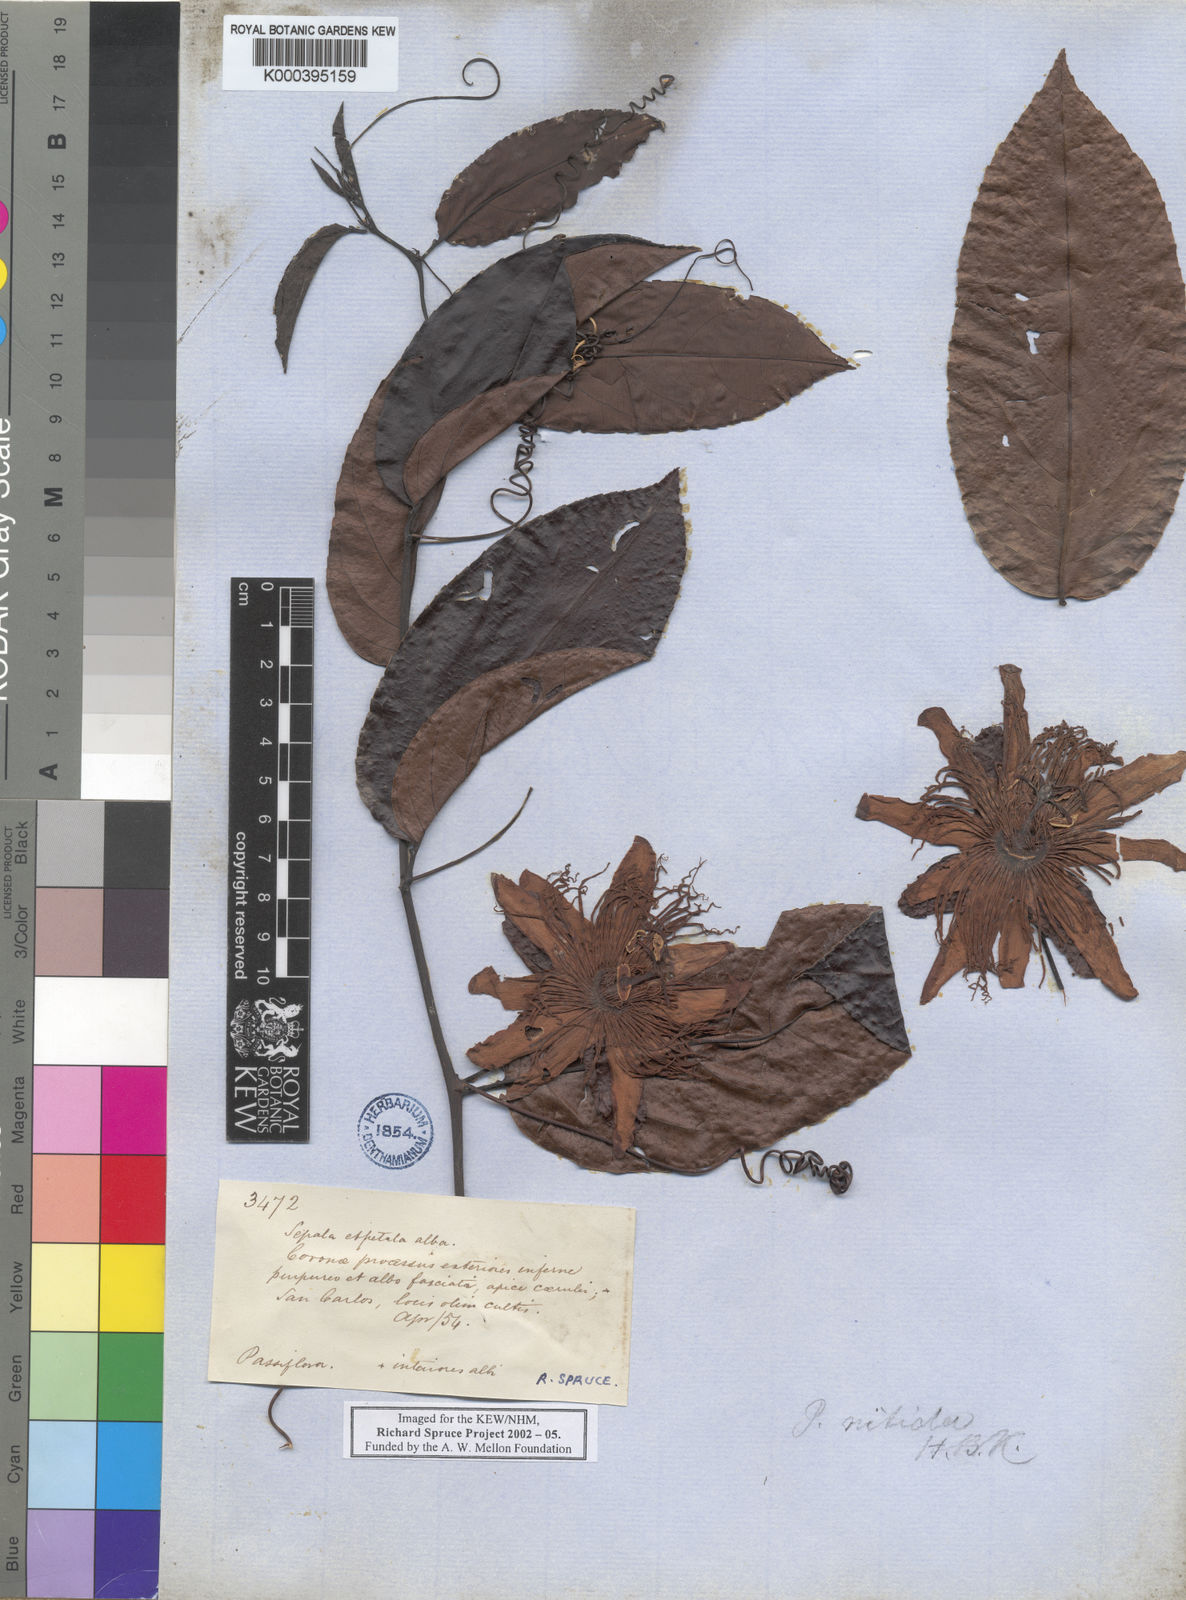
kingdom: Plantae
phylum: Tracheophyta
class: Magnoliopsida
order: Malpighiales
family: Passifloraceae
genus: Passiflora
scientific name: Passiflora
